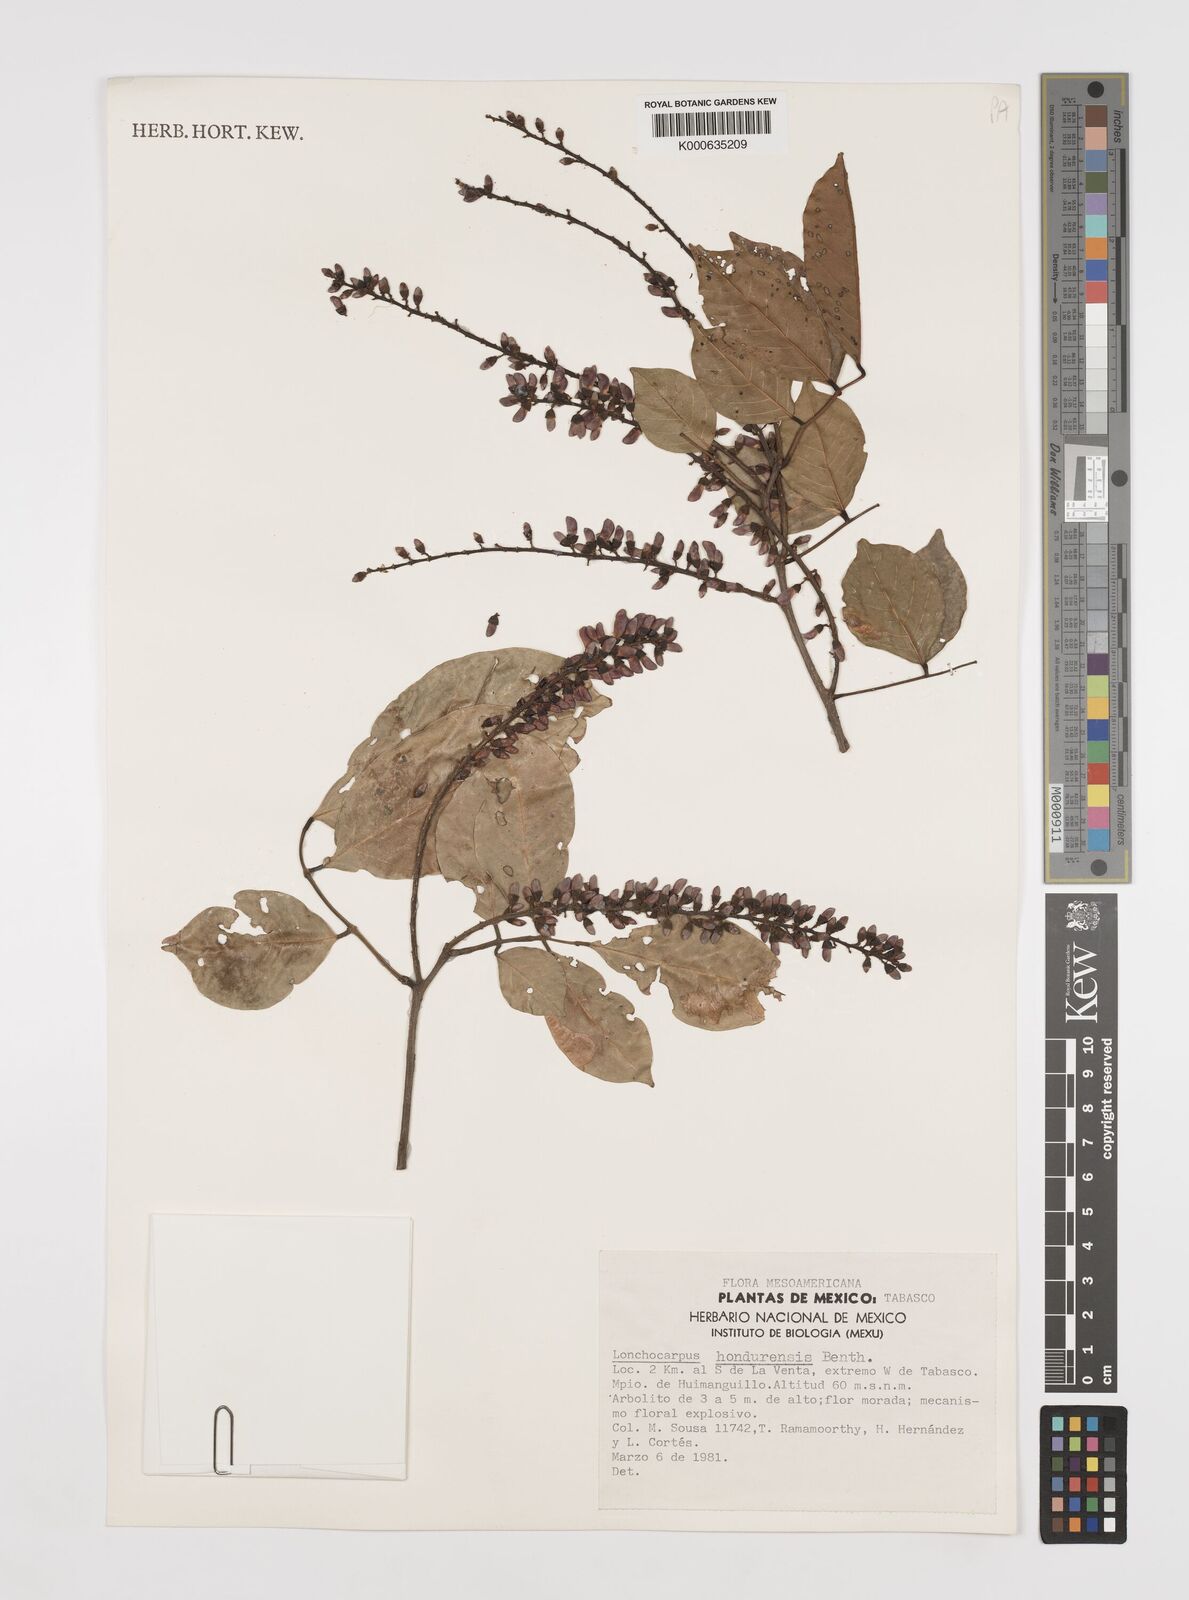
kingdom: Plantae
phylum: Tracheophyta
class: Magnoliopsida
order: Fabales
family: Fabaceae
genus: Lonchocarpus
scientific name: Lonchocarpus hondurensis
